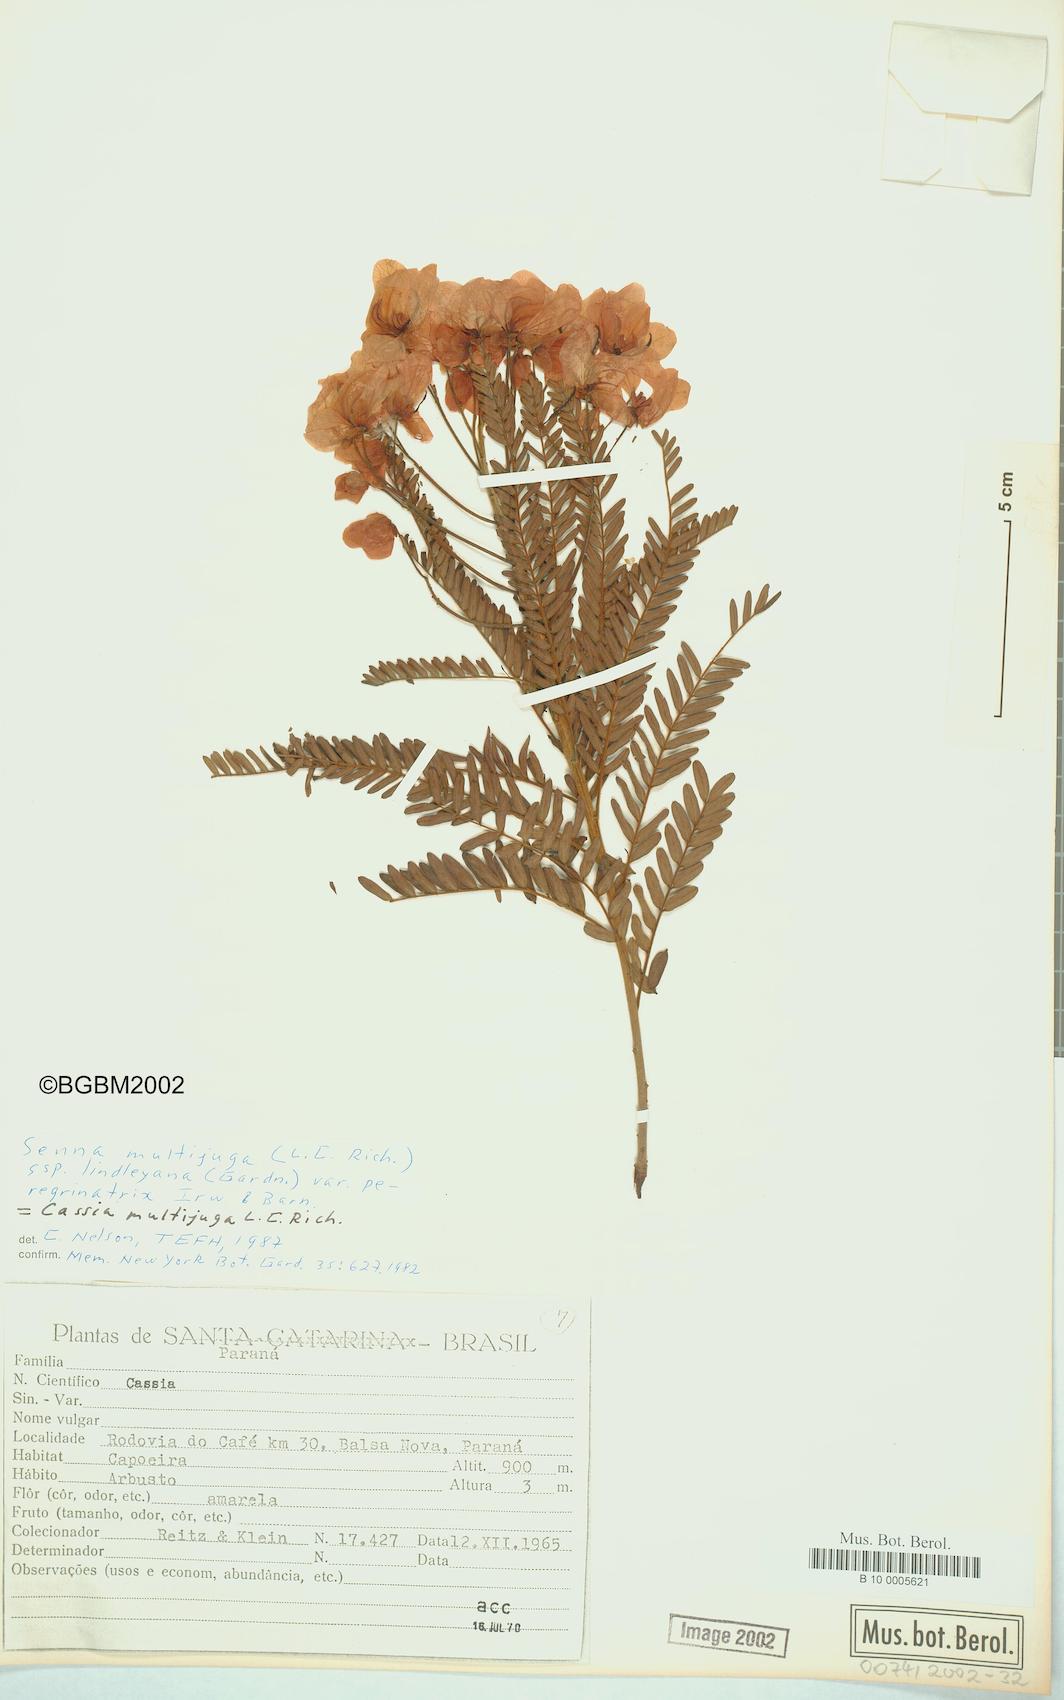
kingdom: Plantae
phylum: Tracheophyta
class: Magnoliopsida
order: Fabales
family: Fabaceae
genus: Senna
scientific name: Senna multijuga
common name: False sicklepod
